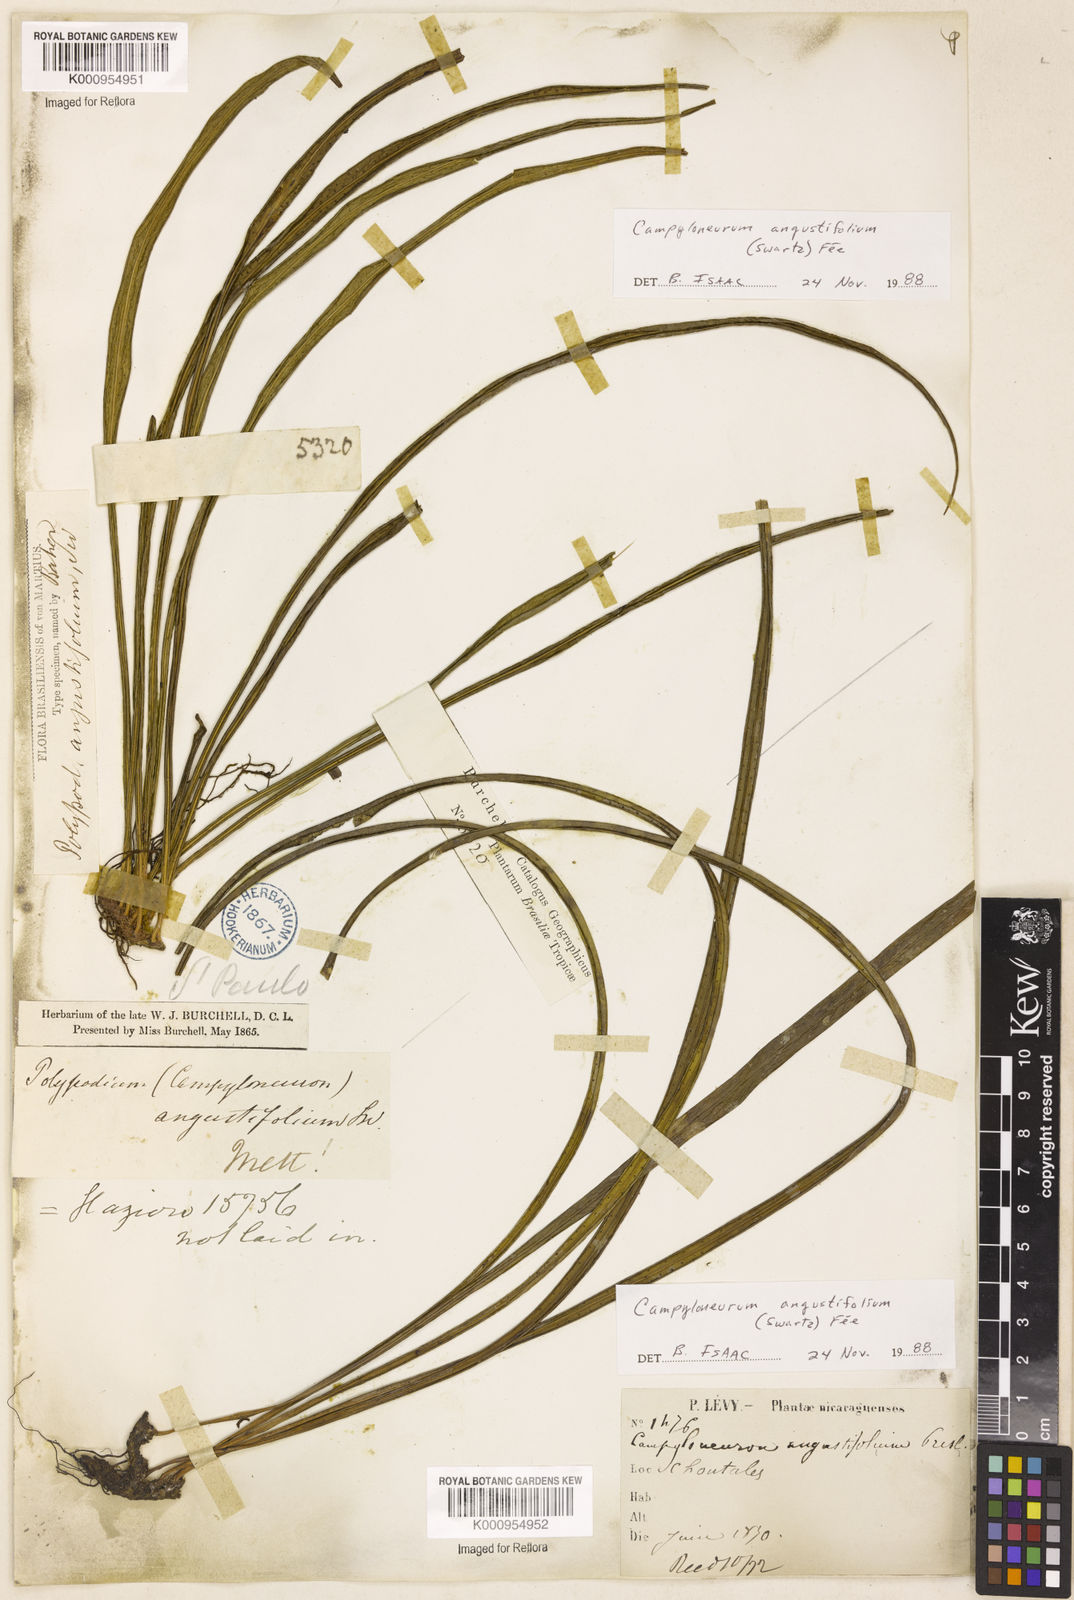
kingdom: Plantae
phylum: Tracheophyta
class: Polypodiopsida
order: Polypodiales
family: Polypodiaceae
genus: Campyloneurum
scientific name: Campyloneurum
